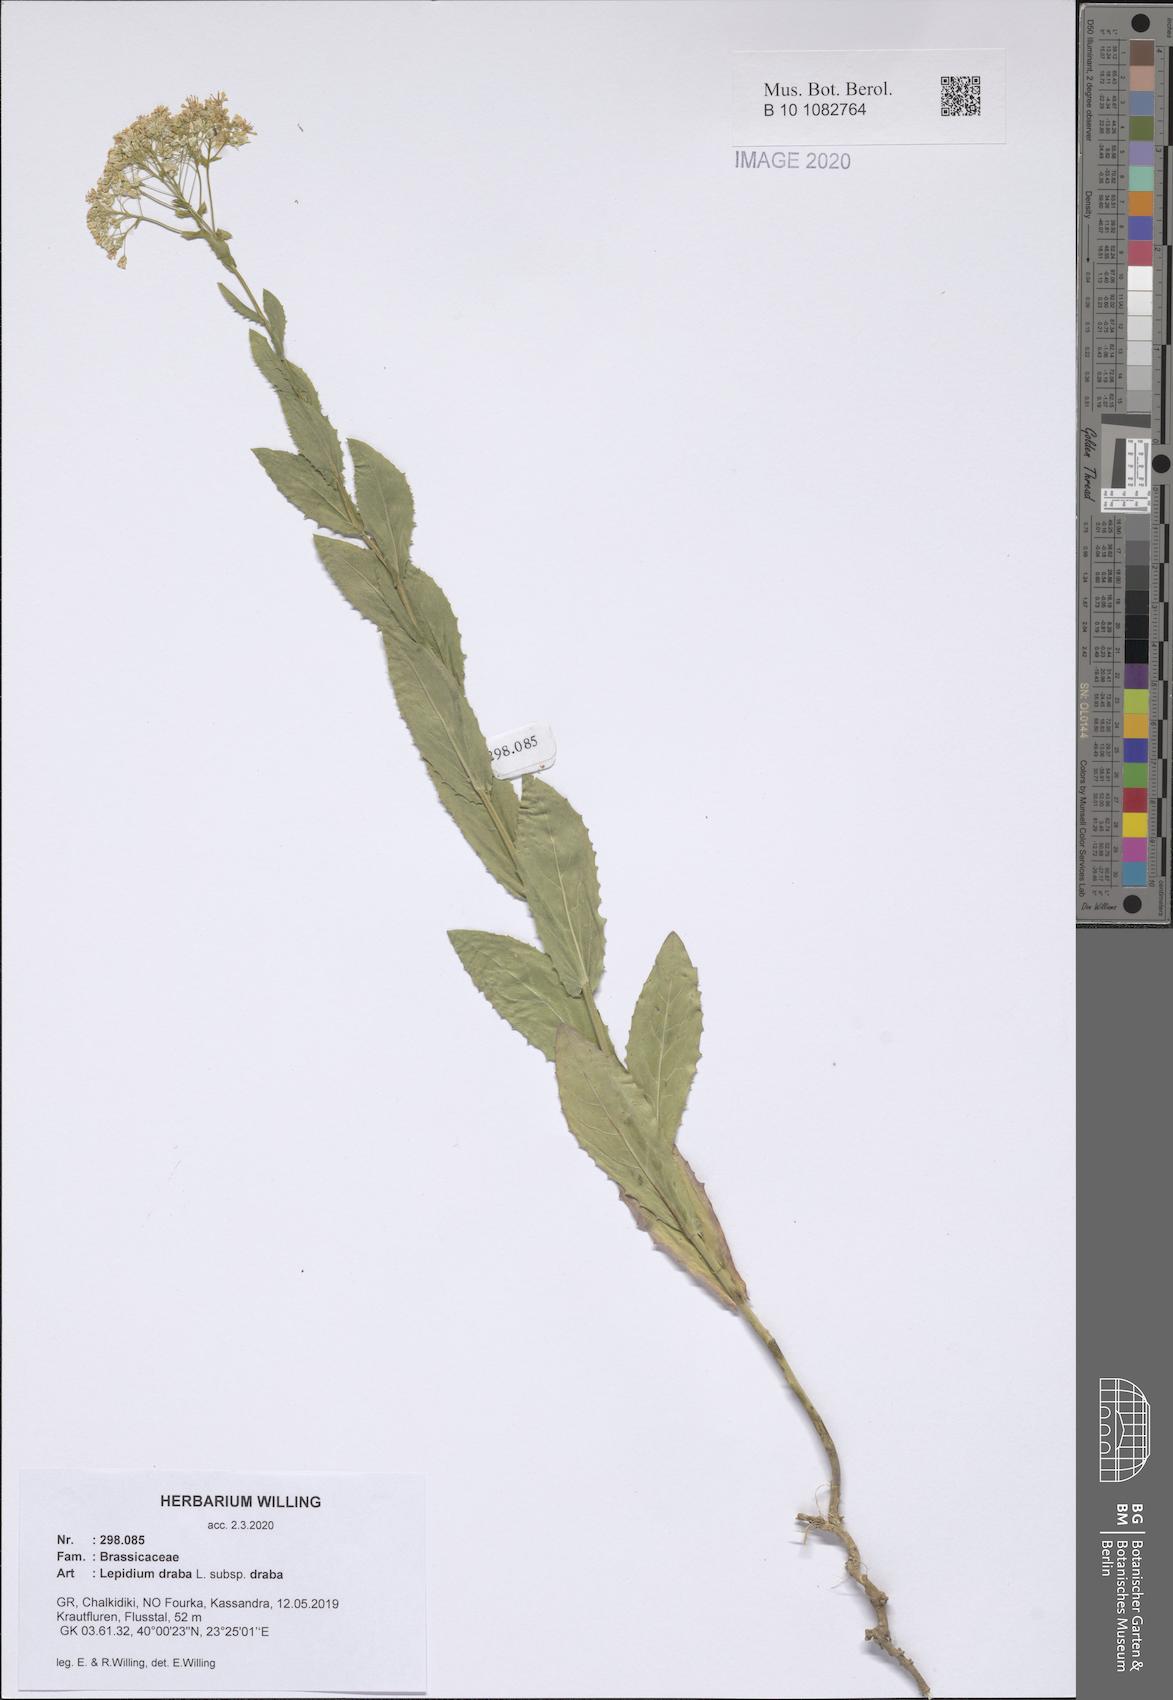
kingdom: Plantae
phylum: Tracheophyta
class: Magnoliopsida
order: Brassicales
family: Brassicaceae
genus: Lepidium
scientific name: Lepidium draba
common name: Hoary cress
